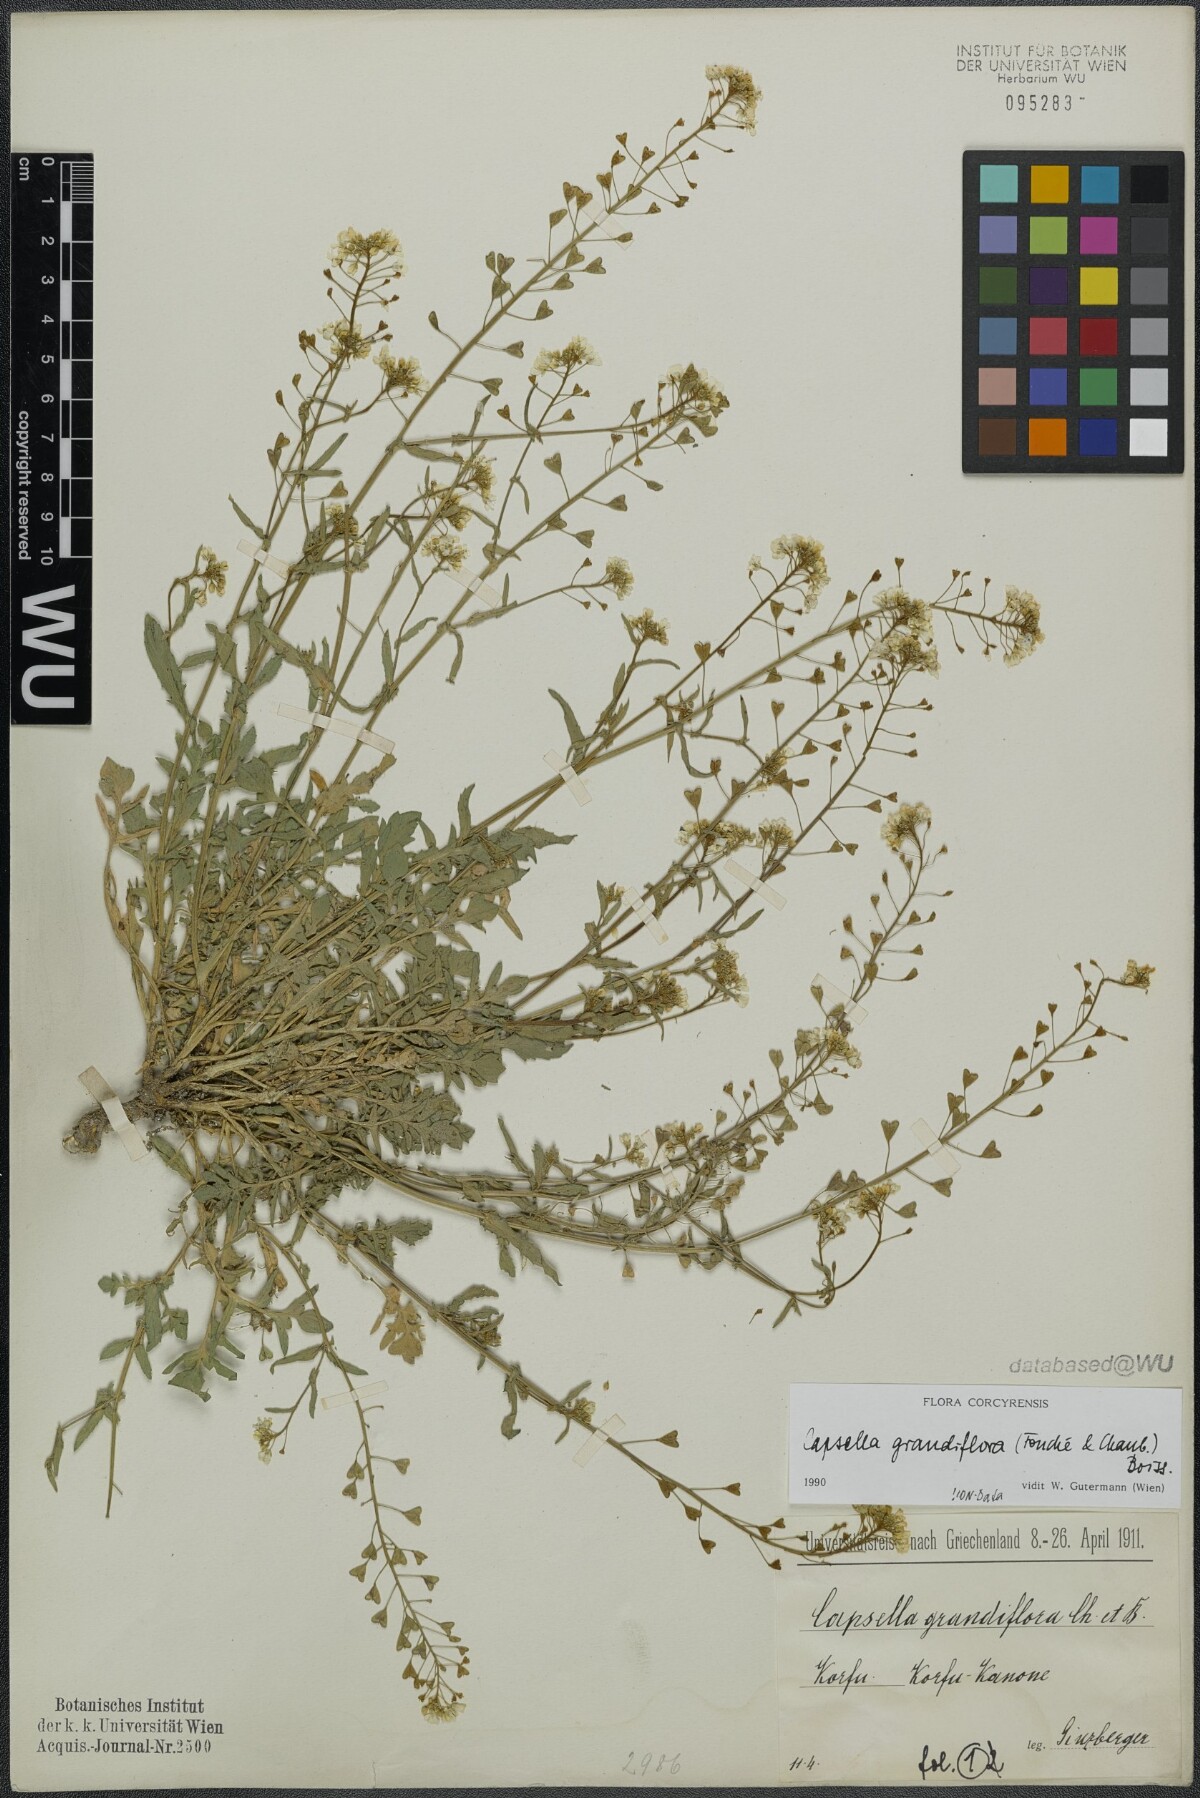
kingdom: Plantae
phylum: Tracheophyta
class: Magnoliopsida
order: Brassicales
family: Brassicaceae
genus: Capsella
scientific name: Capsella grandiflora
